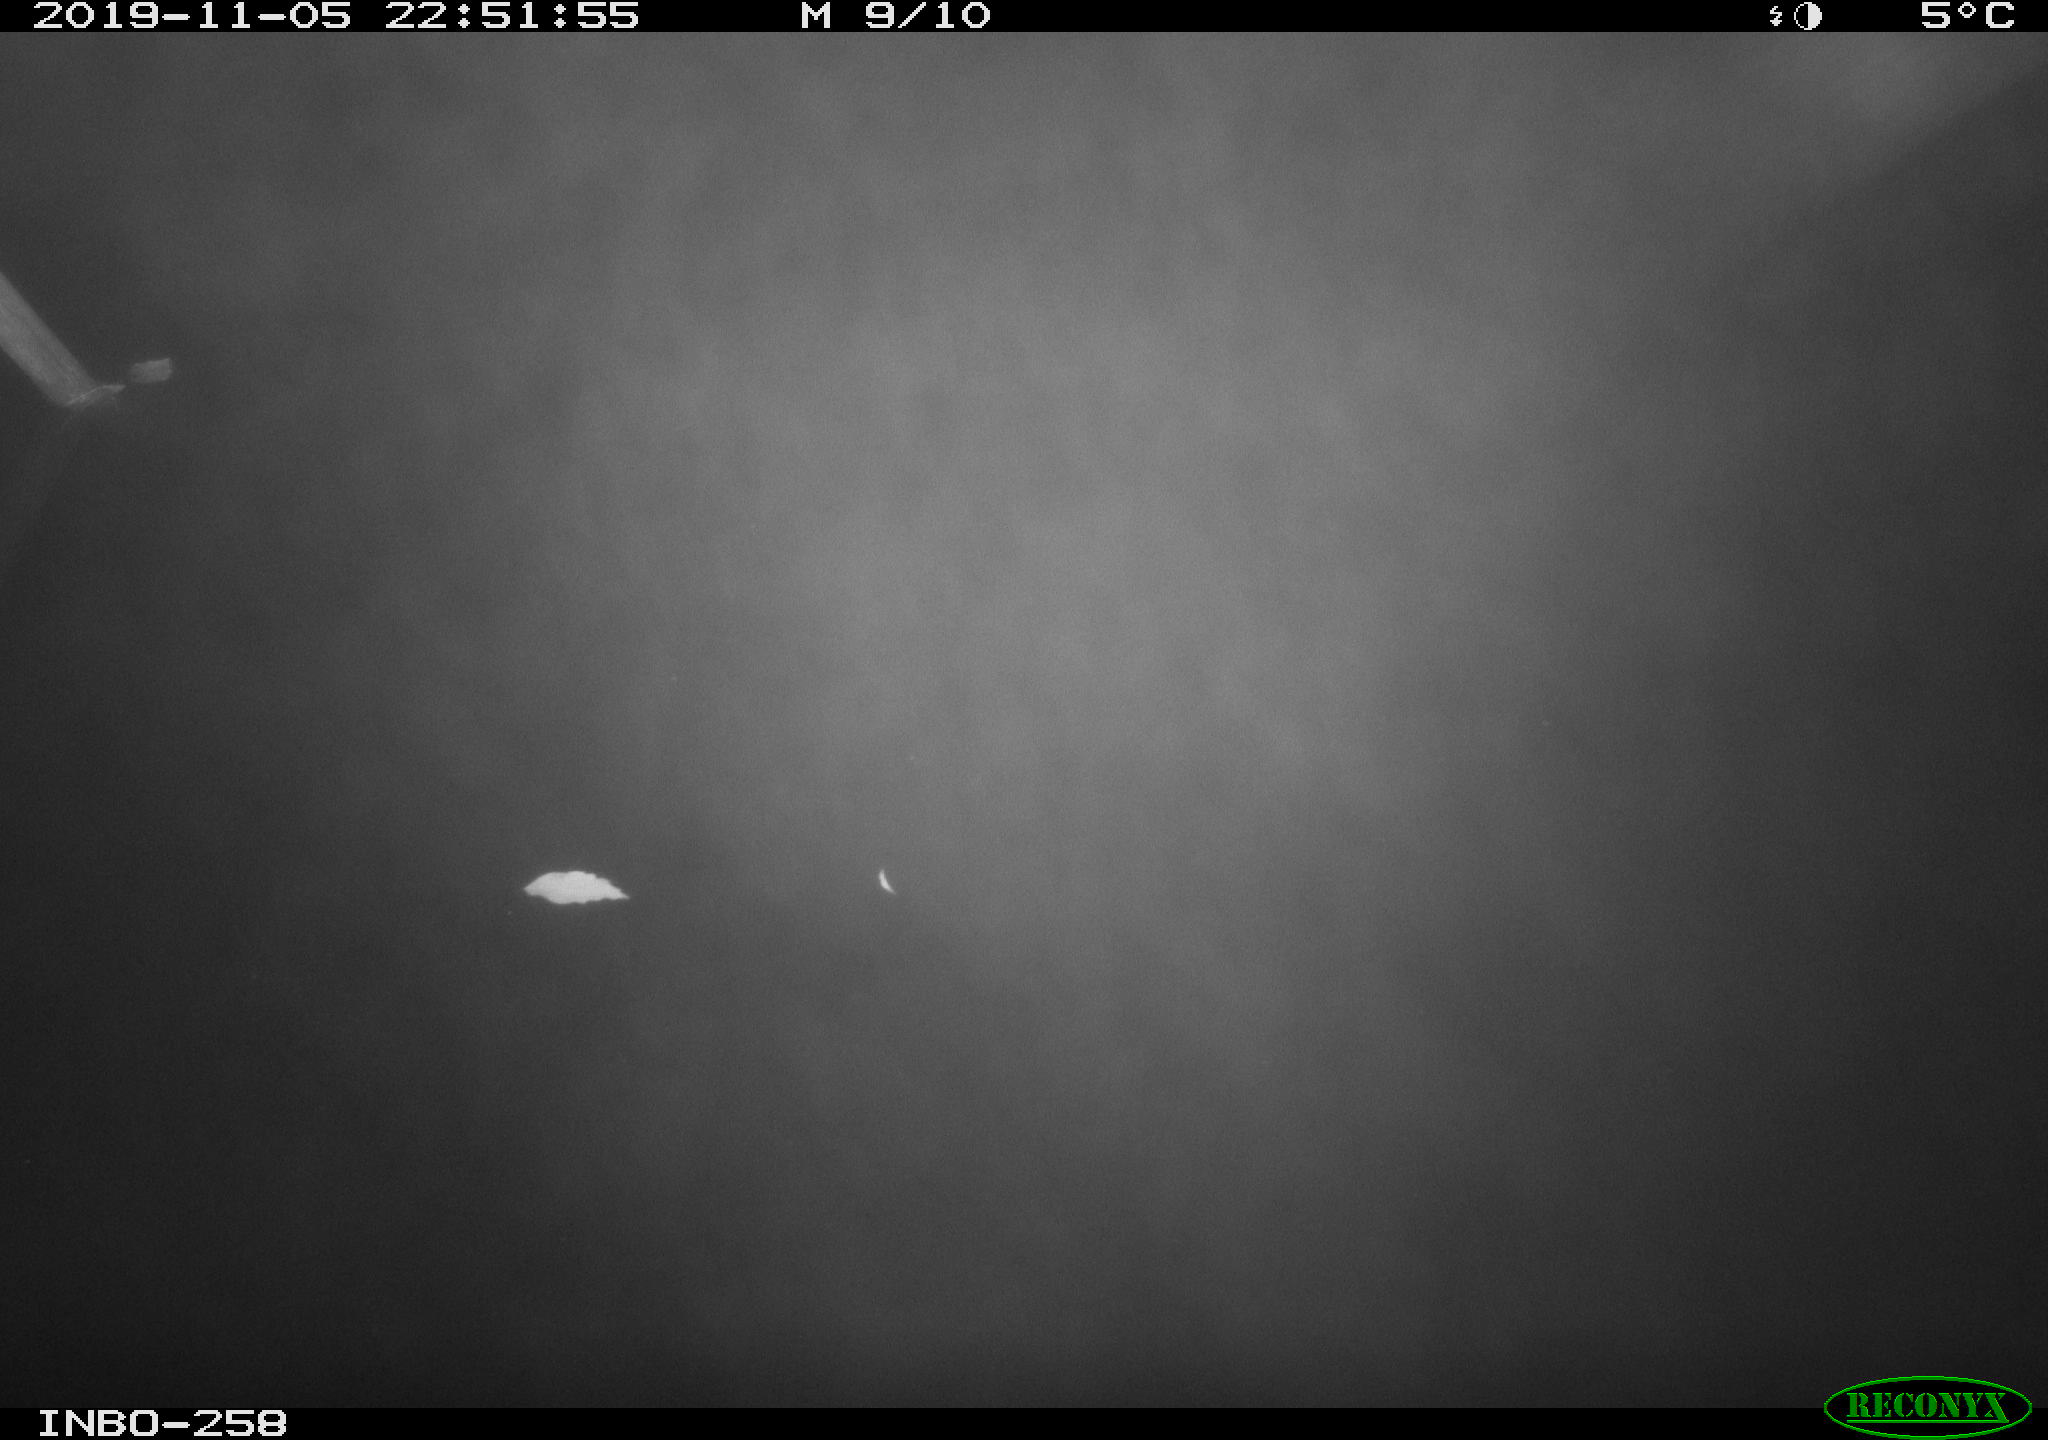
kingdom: Animalia
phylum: Chordata
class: Aves
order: Anseriformes
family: Anatidae
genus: Anas
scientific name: Anas platyrhynchos
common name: Mallard
